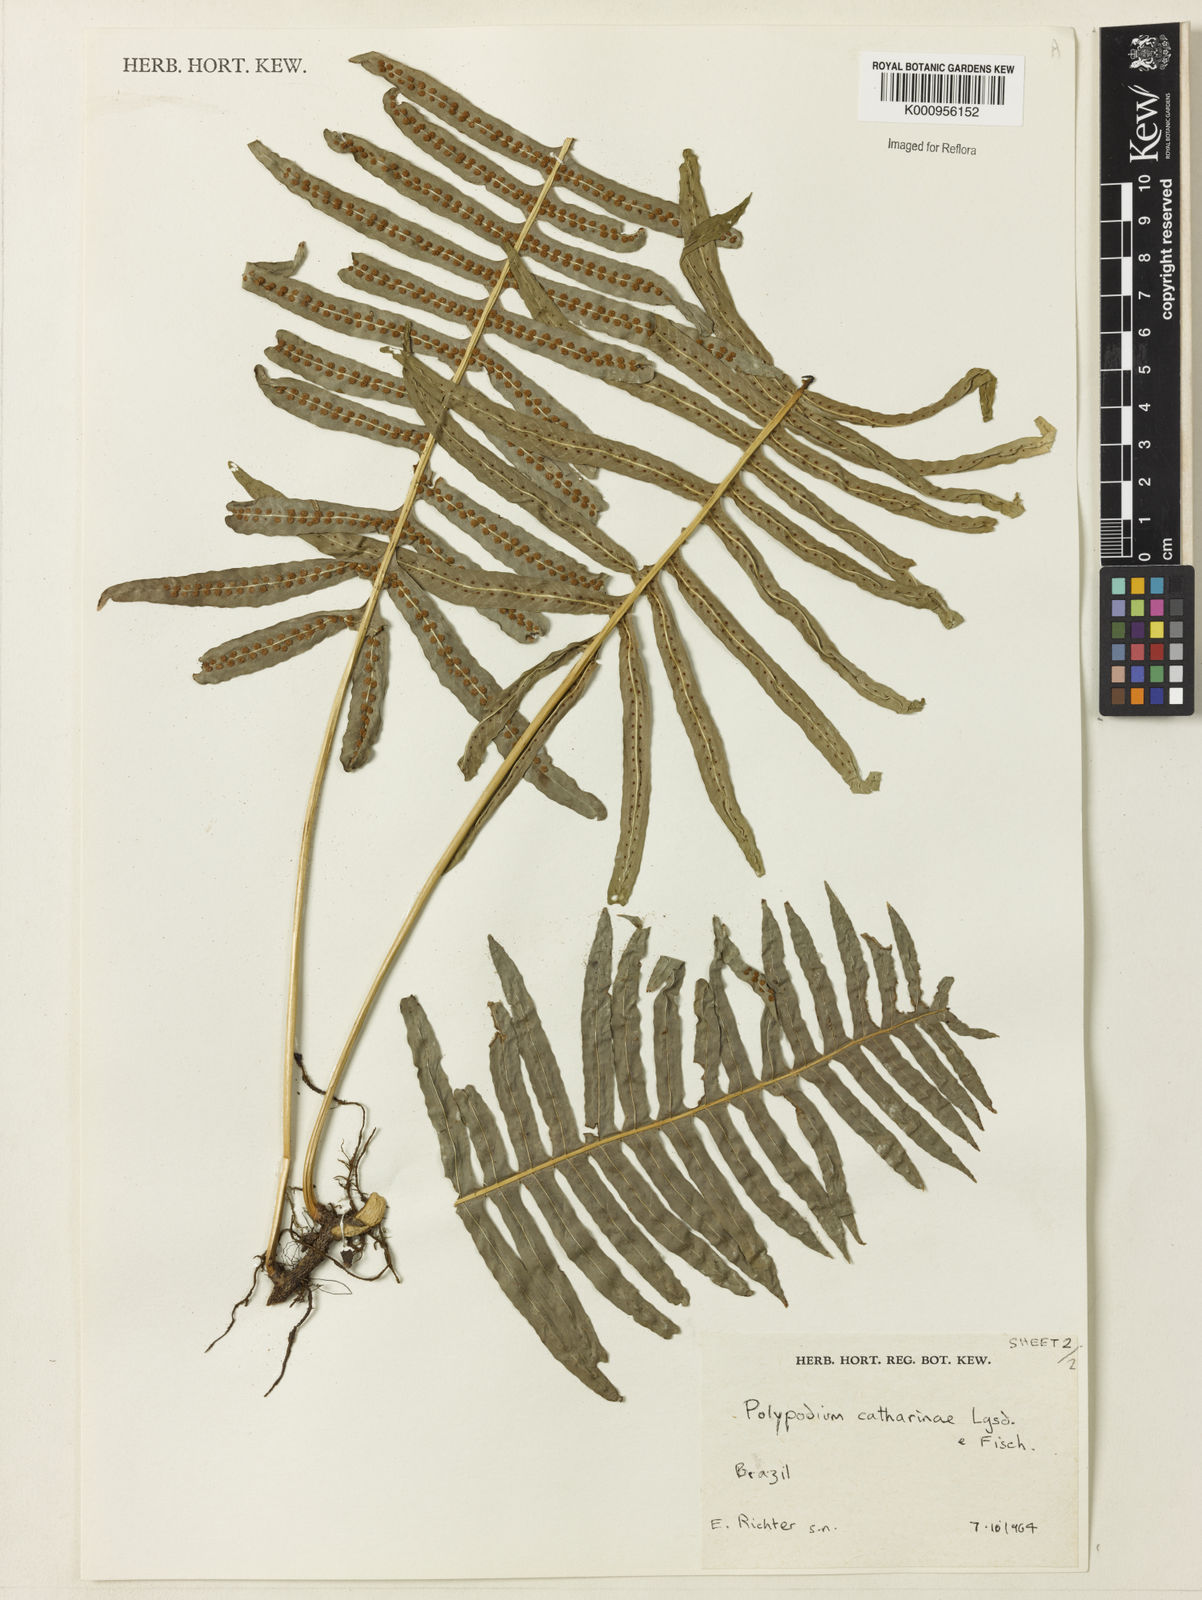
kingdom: Plantae
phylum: Tracheophyta
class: Polypodiopsida
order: Polypodiales
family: Polypodiaceae
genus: Serpocaulon
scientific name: Serpocaulon catharinae
